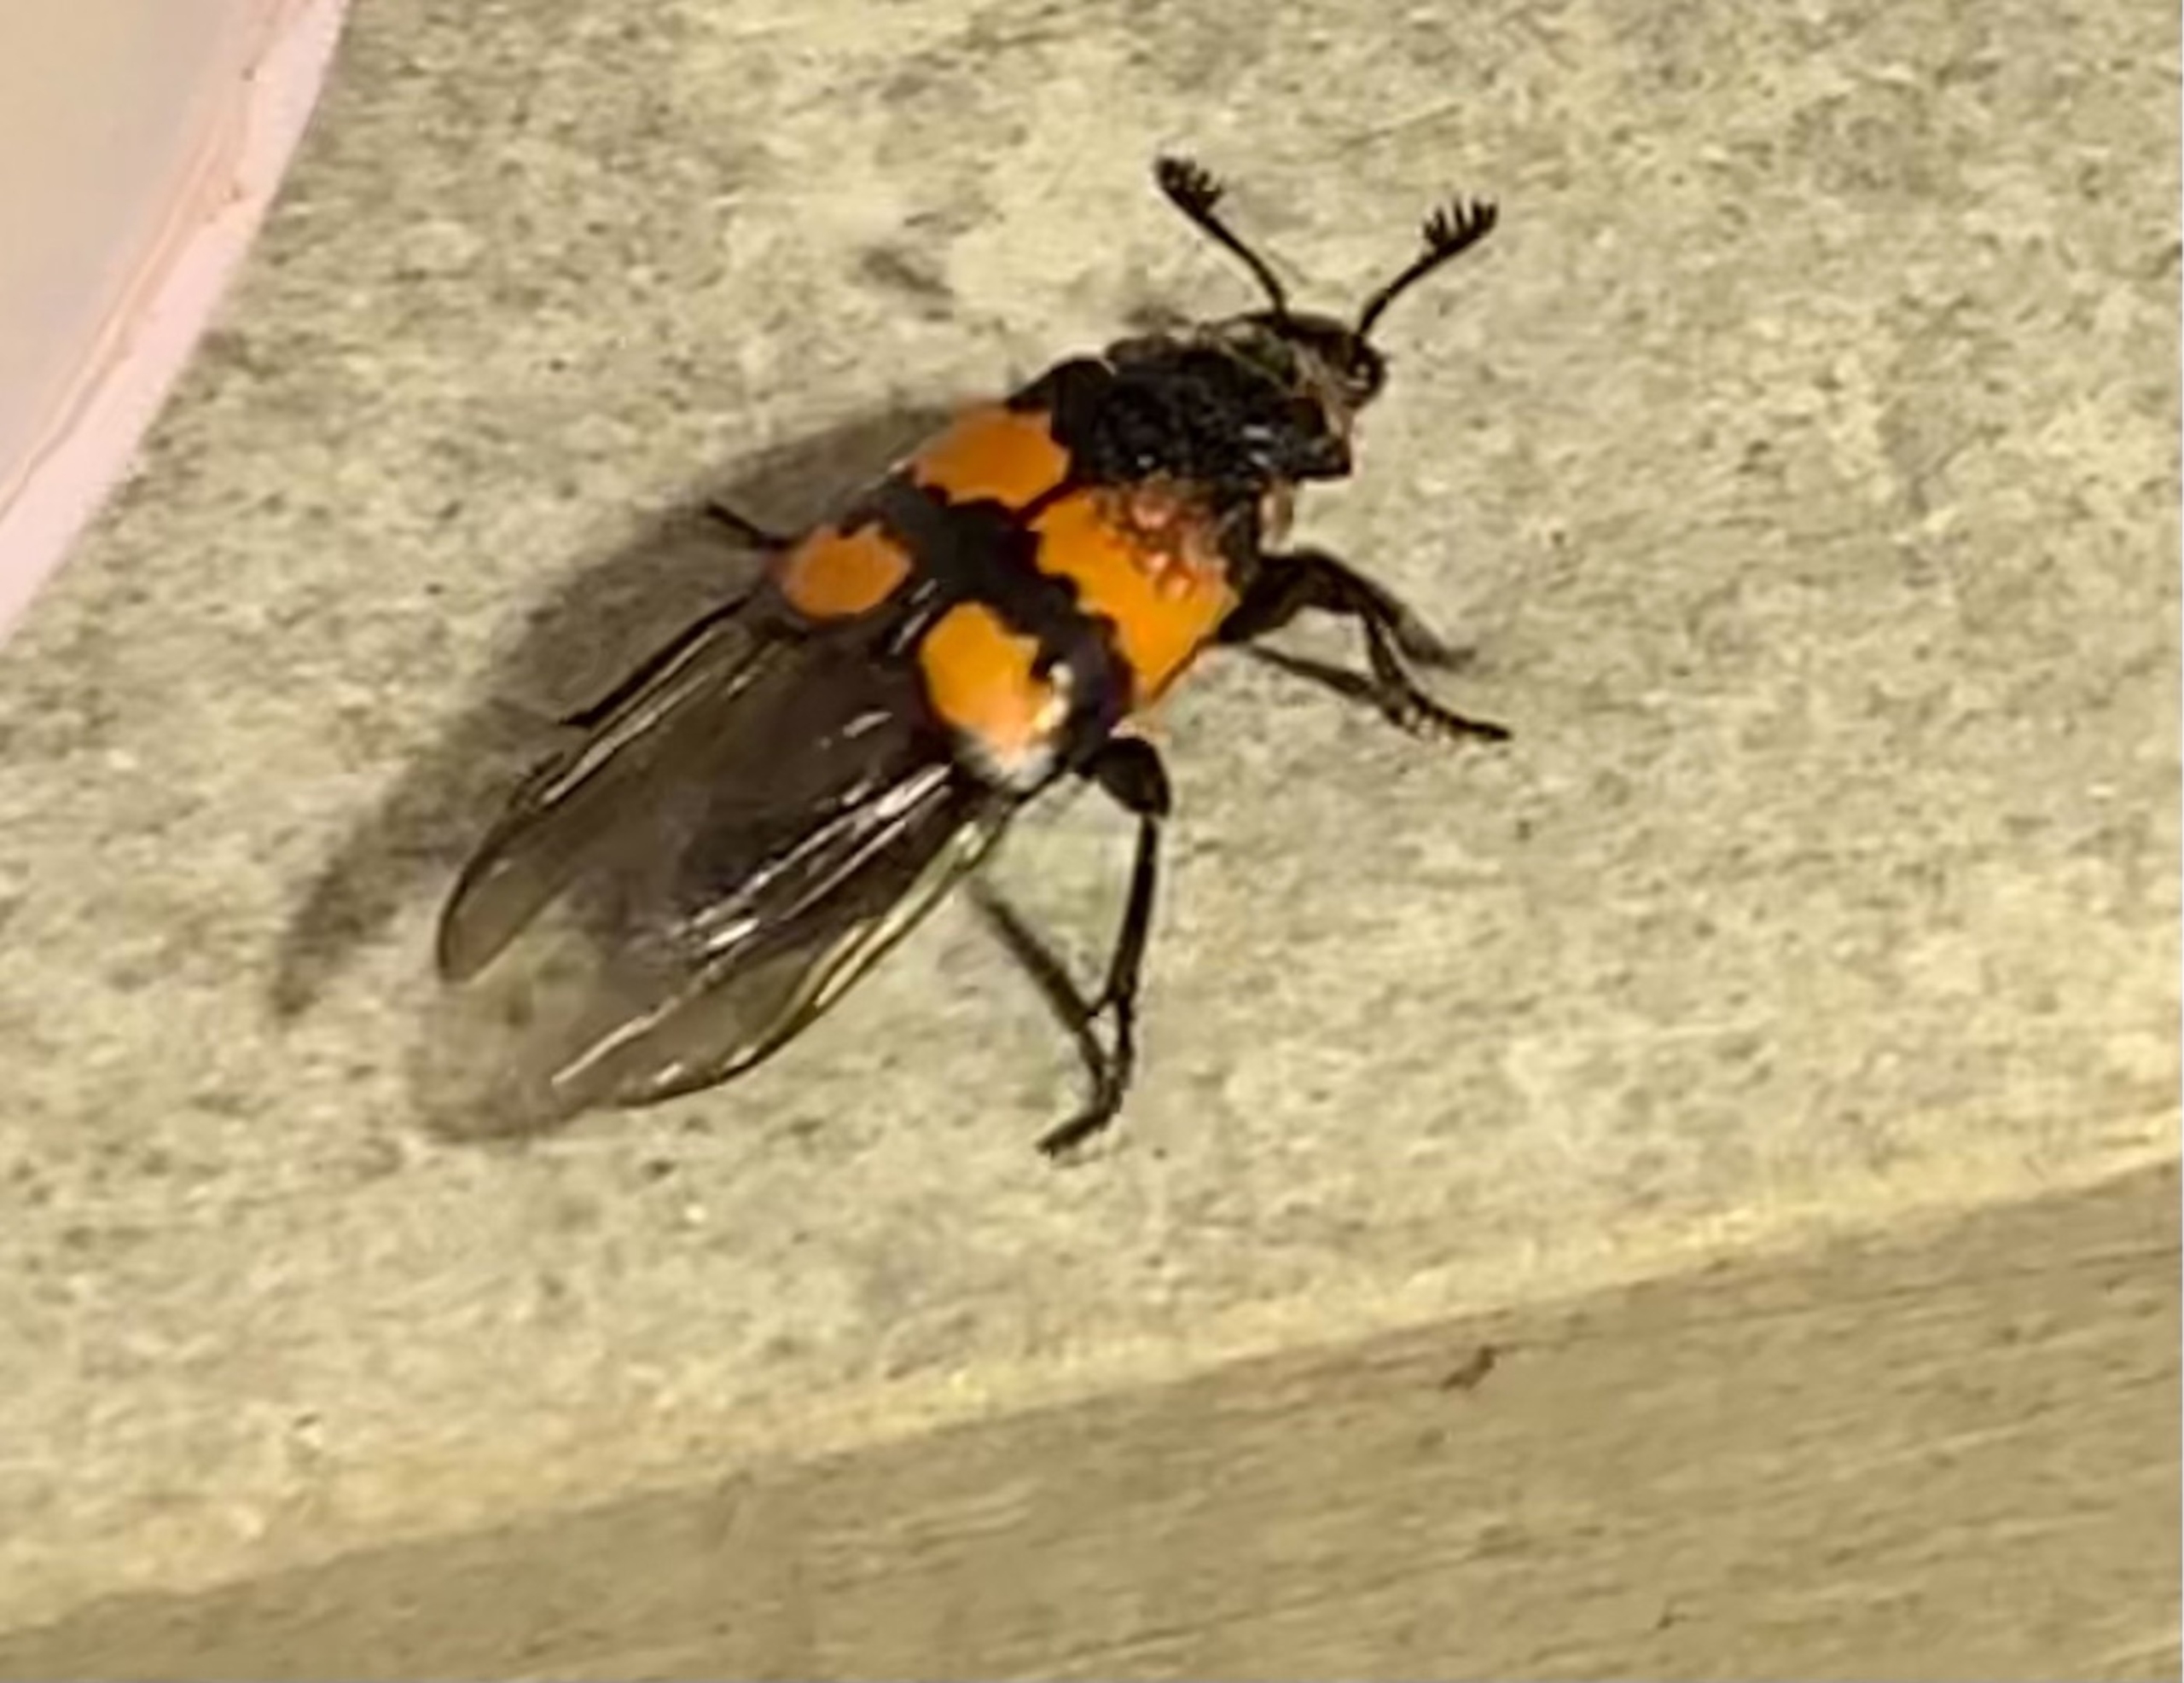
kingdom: Animalia
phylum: Arthropoda
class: Insecta
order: Coleoptera
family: Staphylinidae
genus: Nicrophorus
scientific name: Nicrophorus vespilloides
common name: Sortkøllet ådselgraver
